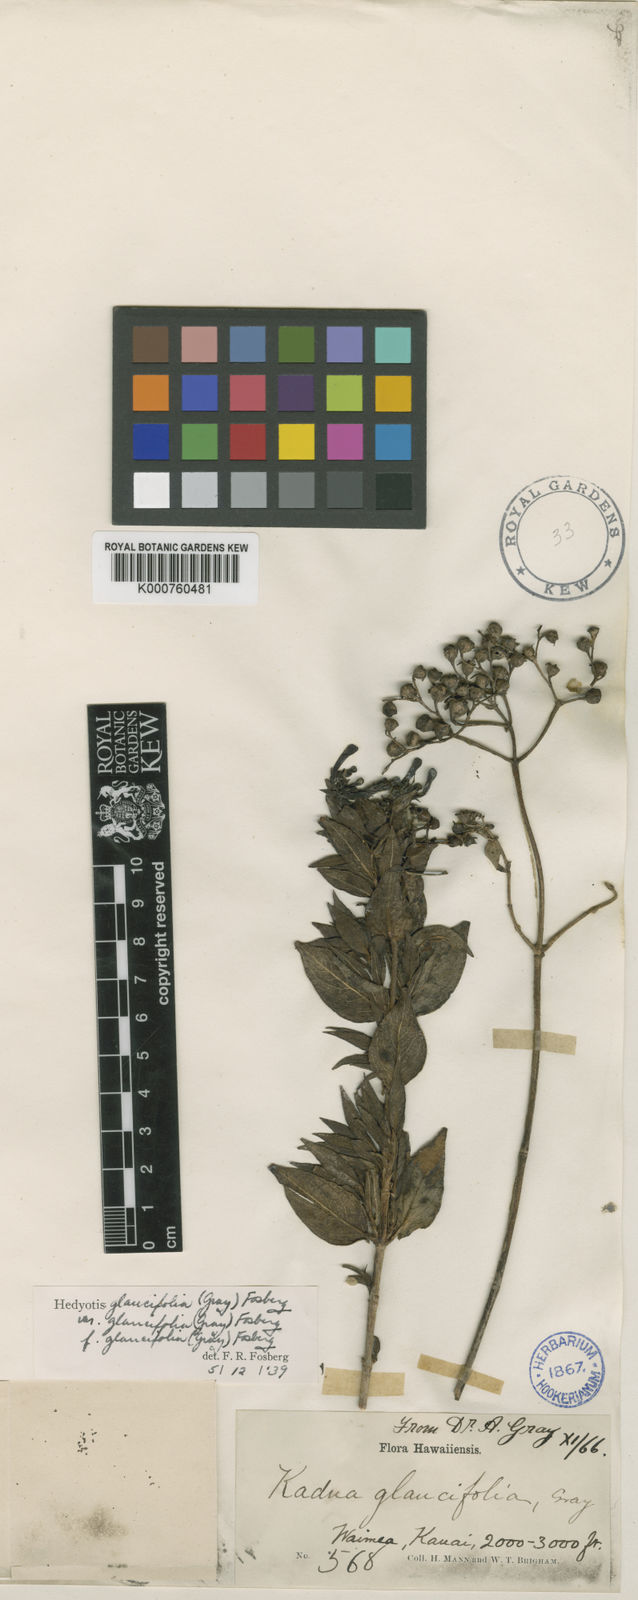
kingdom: Plantae
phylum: Tracheophyta
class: Magnoliopsida
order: Gentianales
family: Rubiaceae
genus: Kadua
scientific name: Kadua cordata
